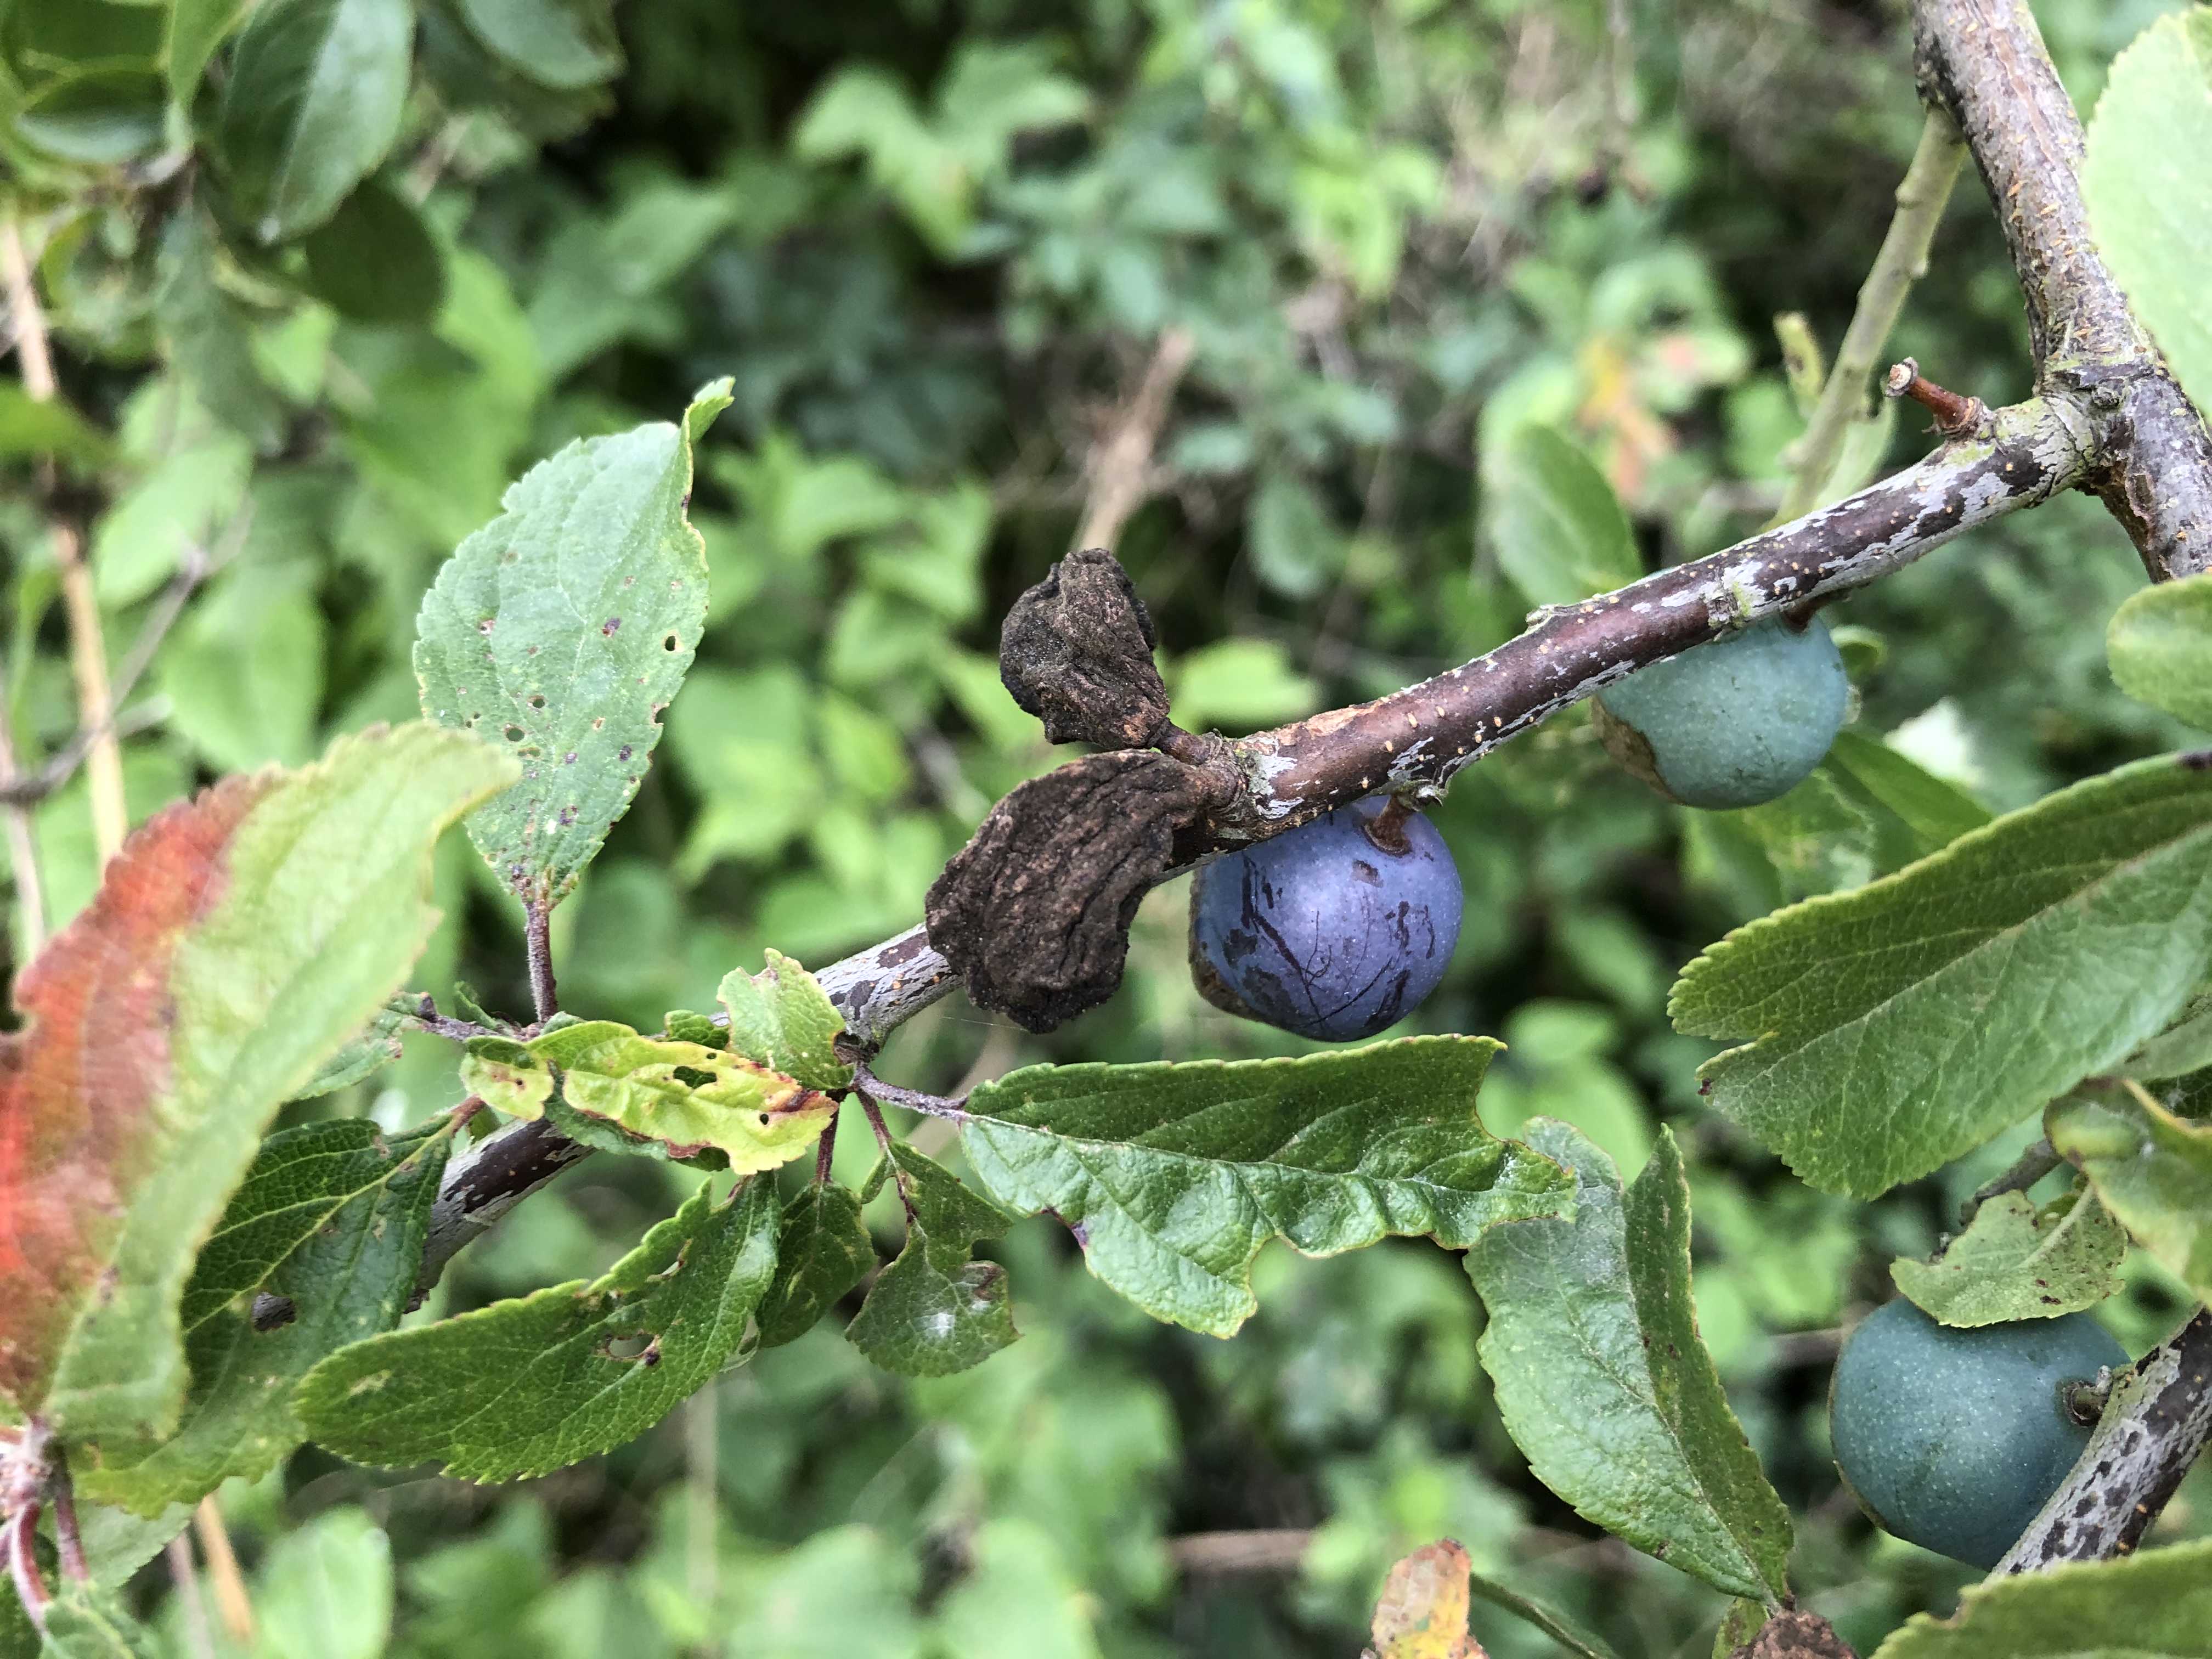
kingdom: Fungi
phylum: Ascomycota
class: Taphrinomycetes
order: Taphrinales
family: Taphrinaceae
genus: Taphrina
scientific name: Taphrina pruni
